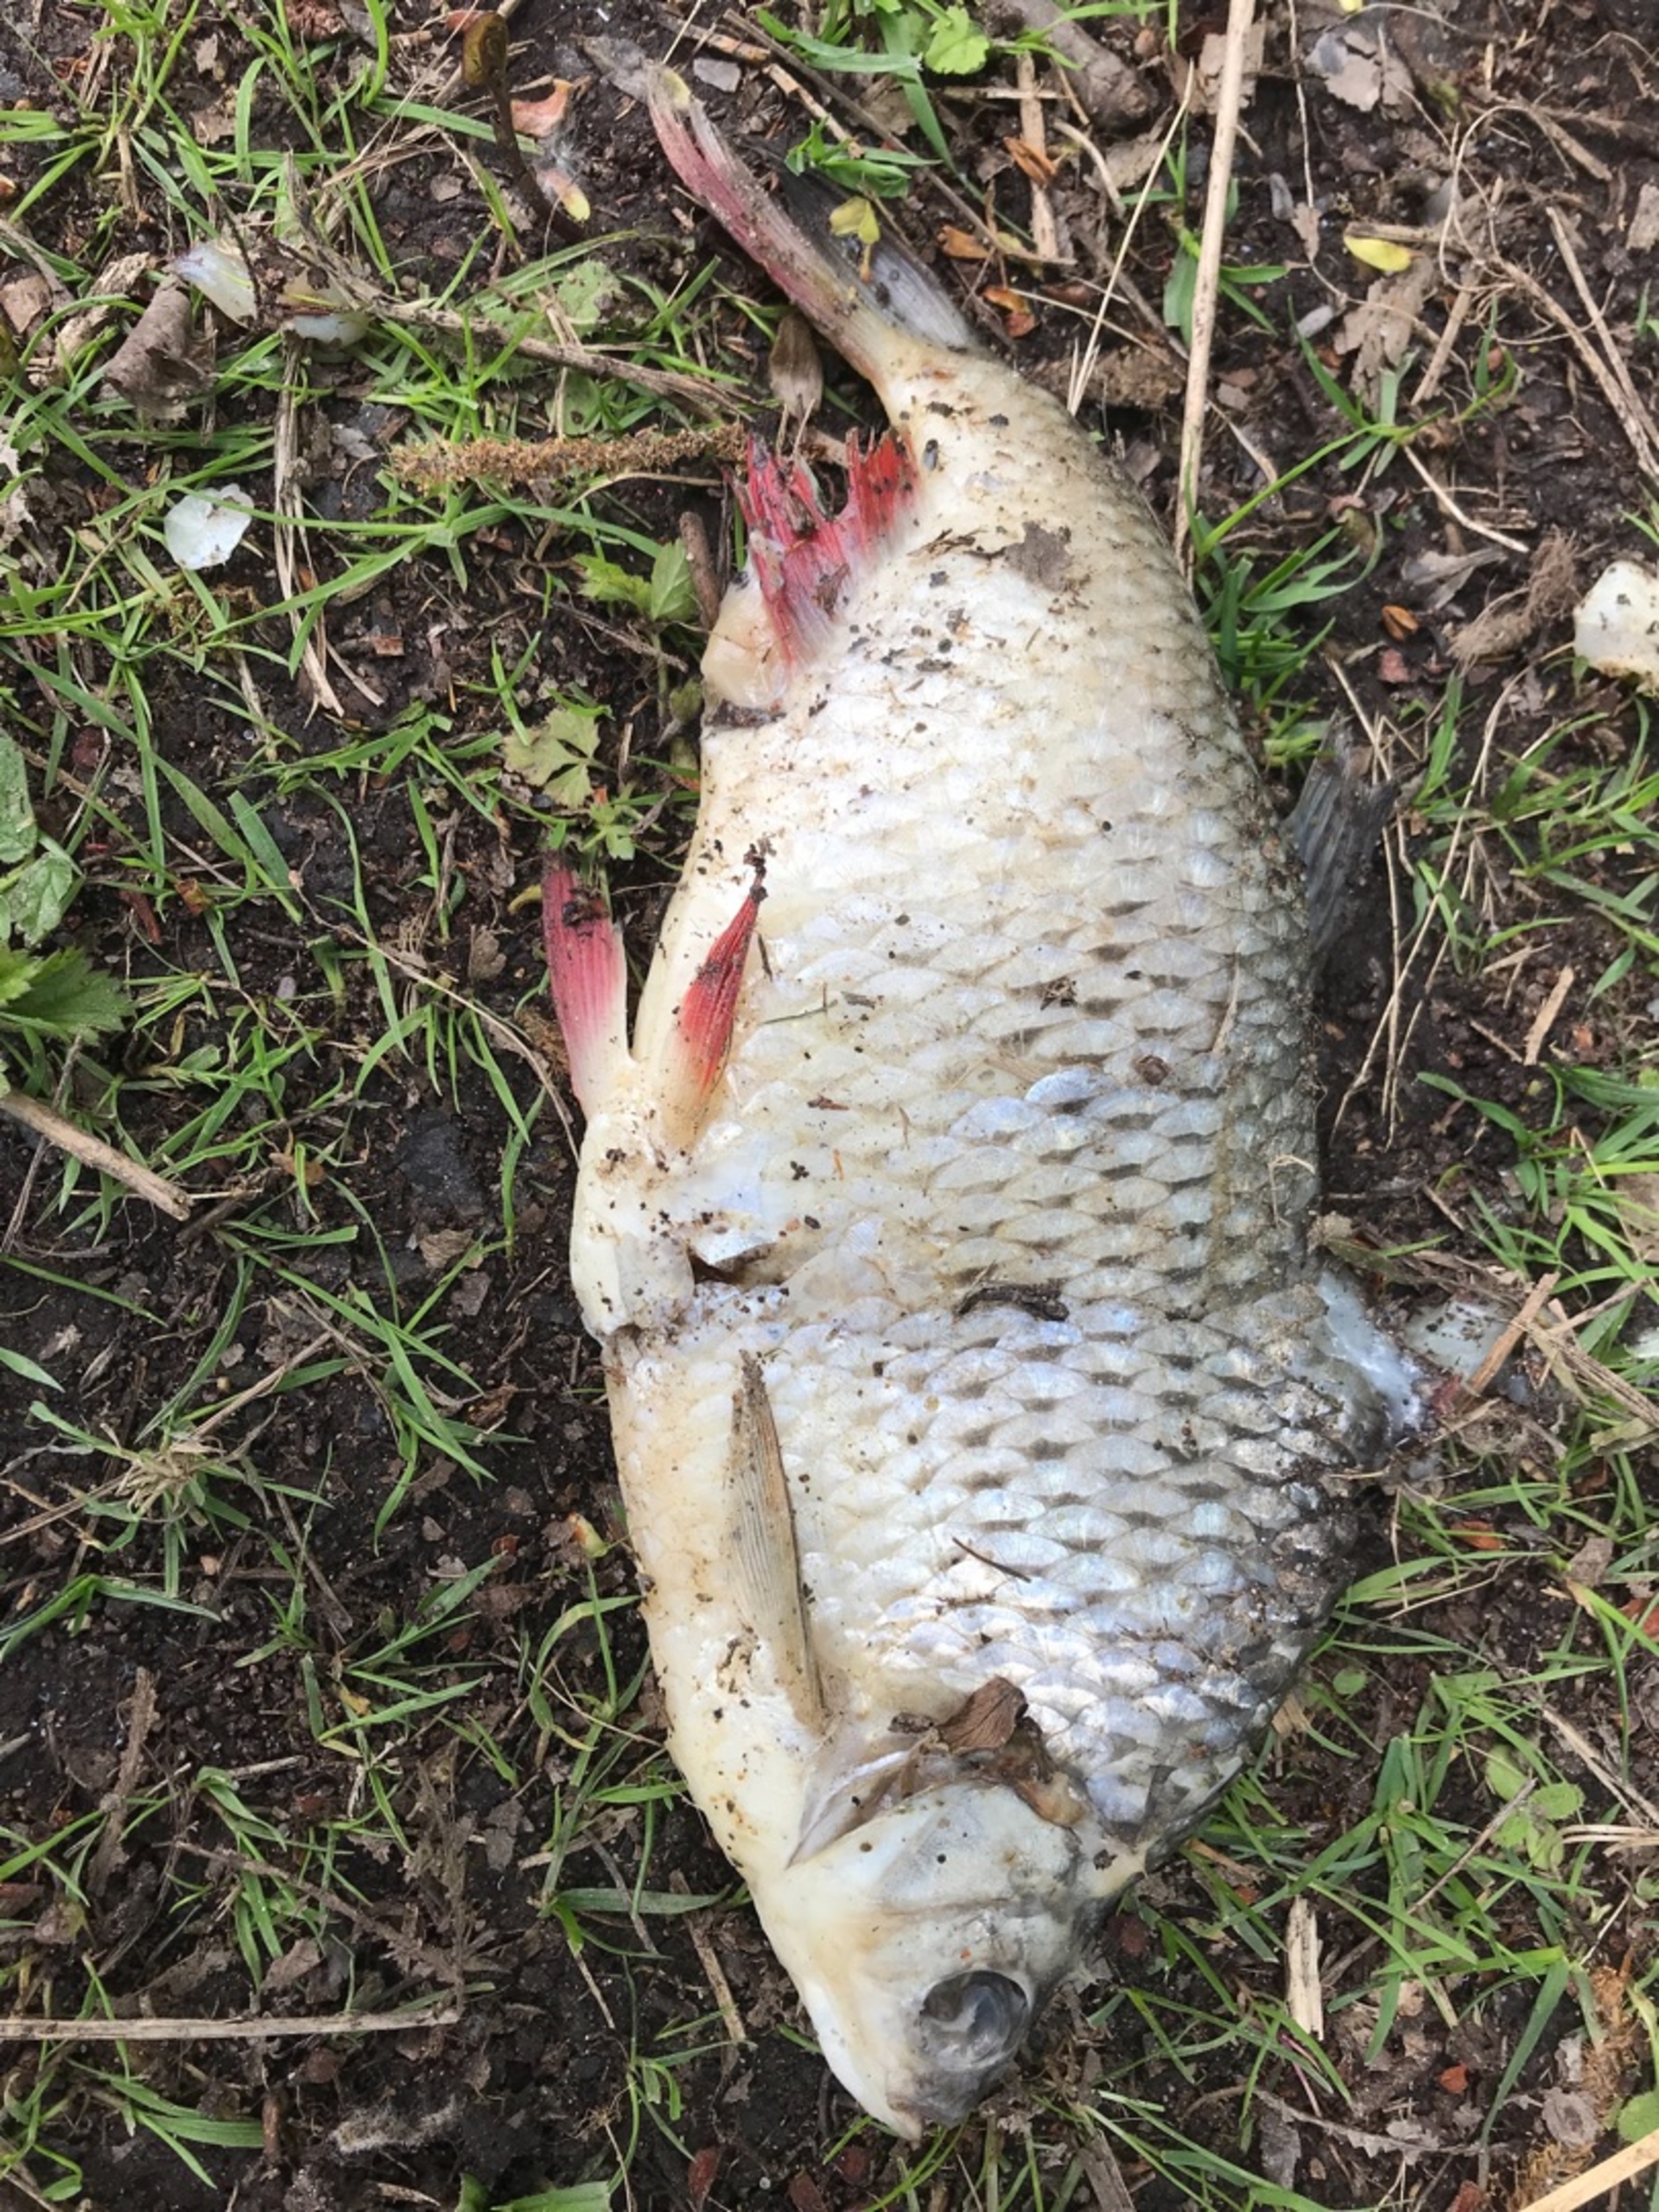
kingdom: Animalia
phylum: Chordata
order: Cypriniformes
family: Cyprinidae
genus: Scardinius
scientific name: Scardinius erythrophthalmus
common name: Rudskalle
